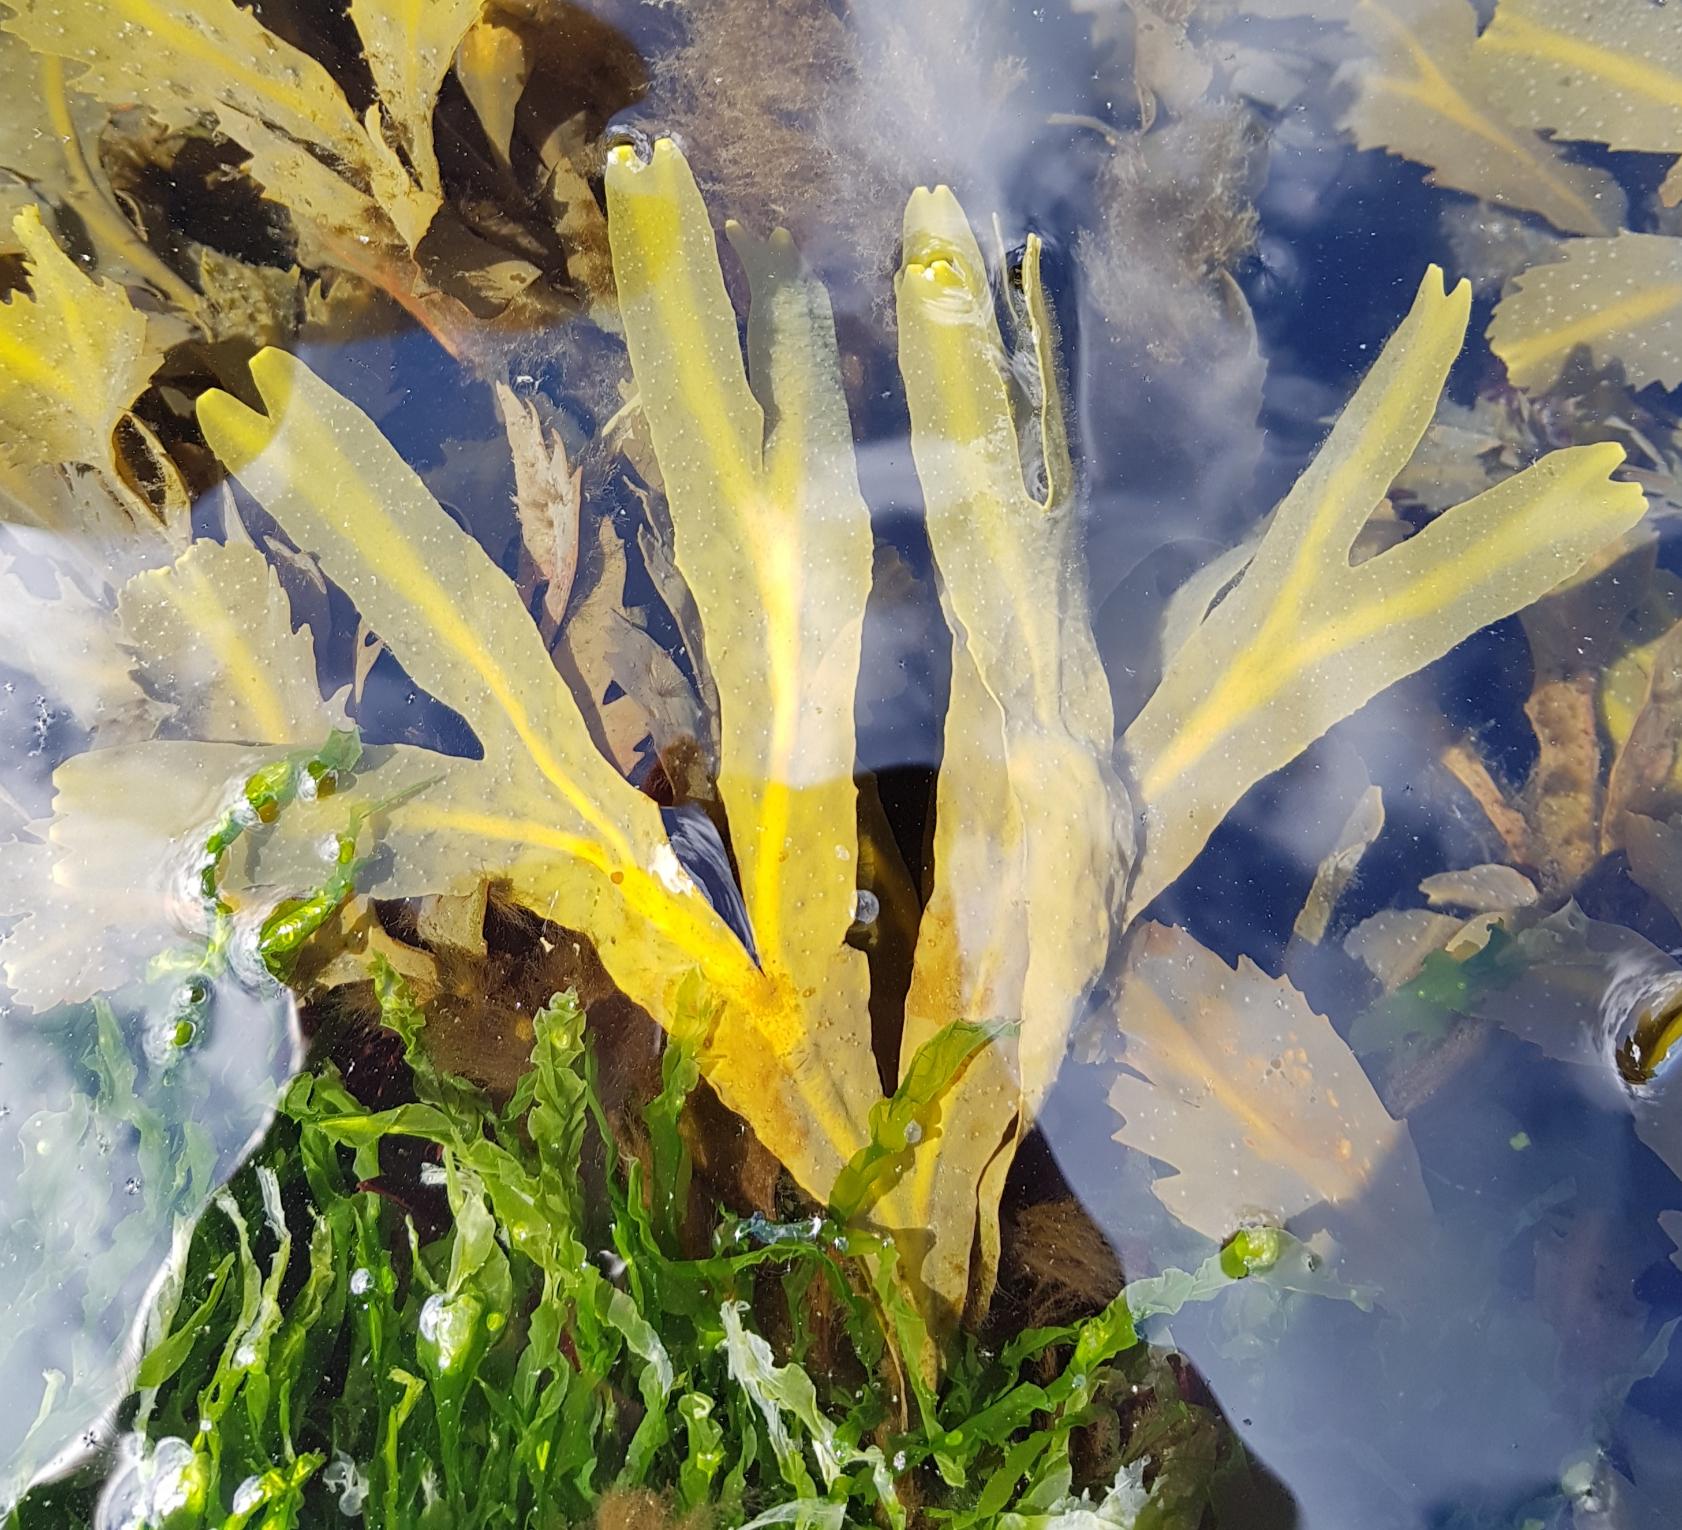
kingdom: Chromista
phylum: Ochrophyta
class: Phaeophyceae
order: Fucales
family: Fucaceae
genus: Fucus
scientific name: Fucus serratus
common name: Savtang
